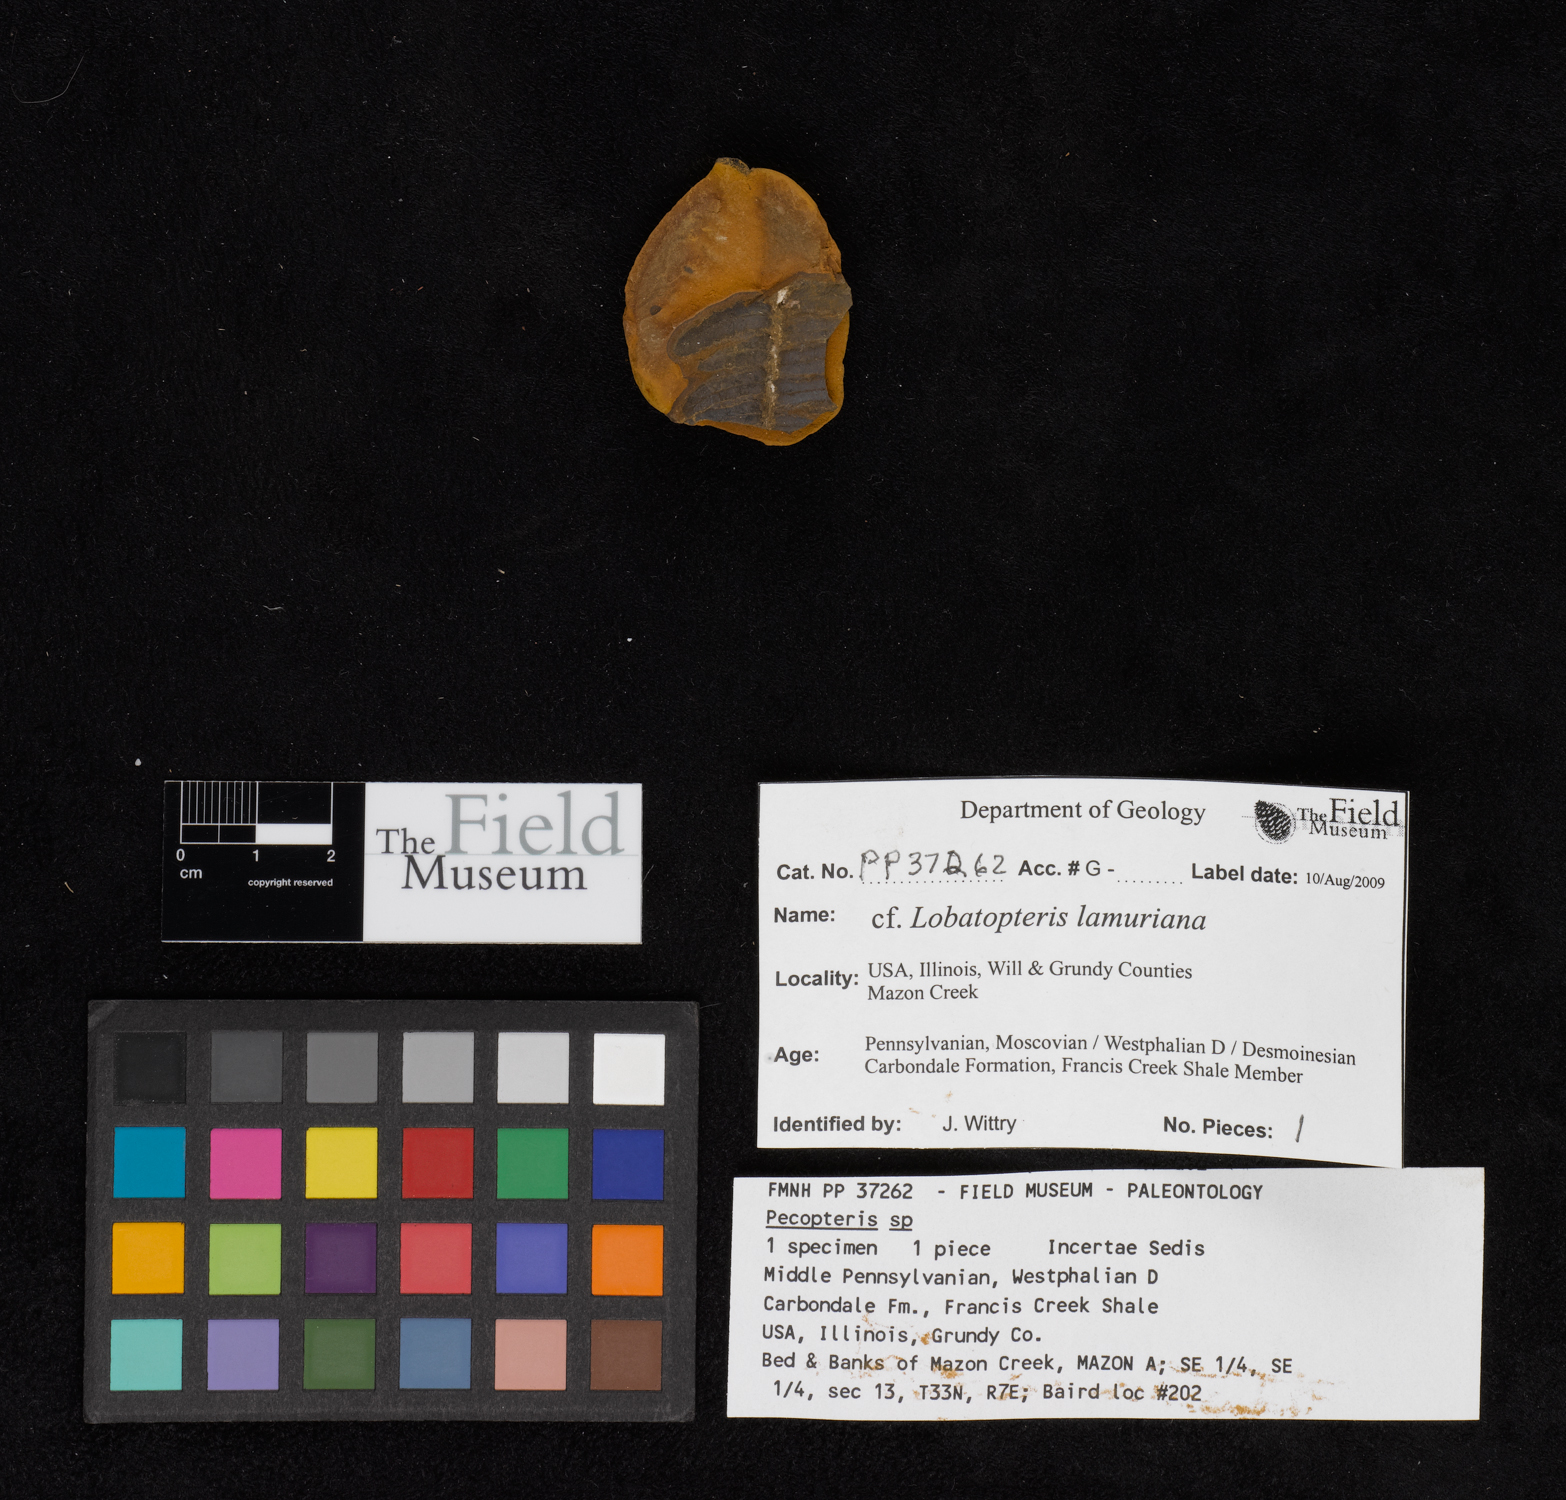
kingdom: Plantae
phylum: Tracheophyta
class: Polypodiopsida
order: Marattiales
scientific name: Marattiales
